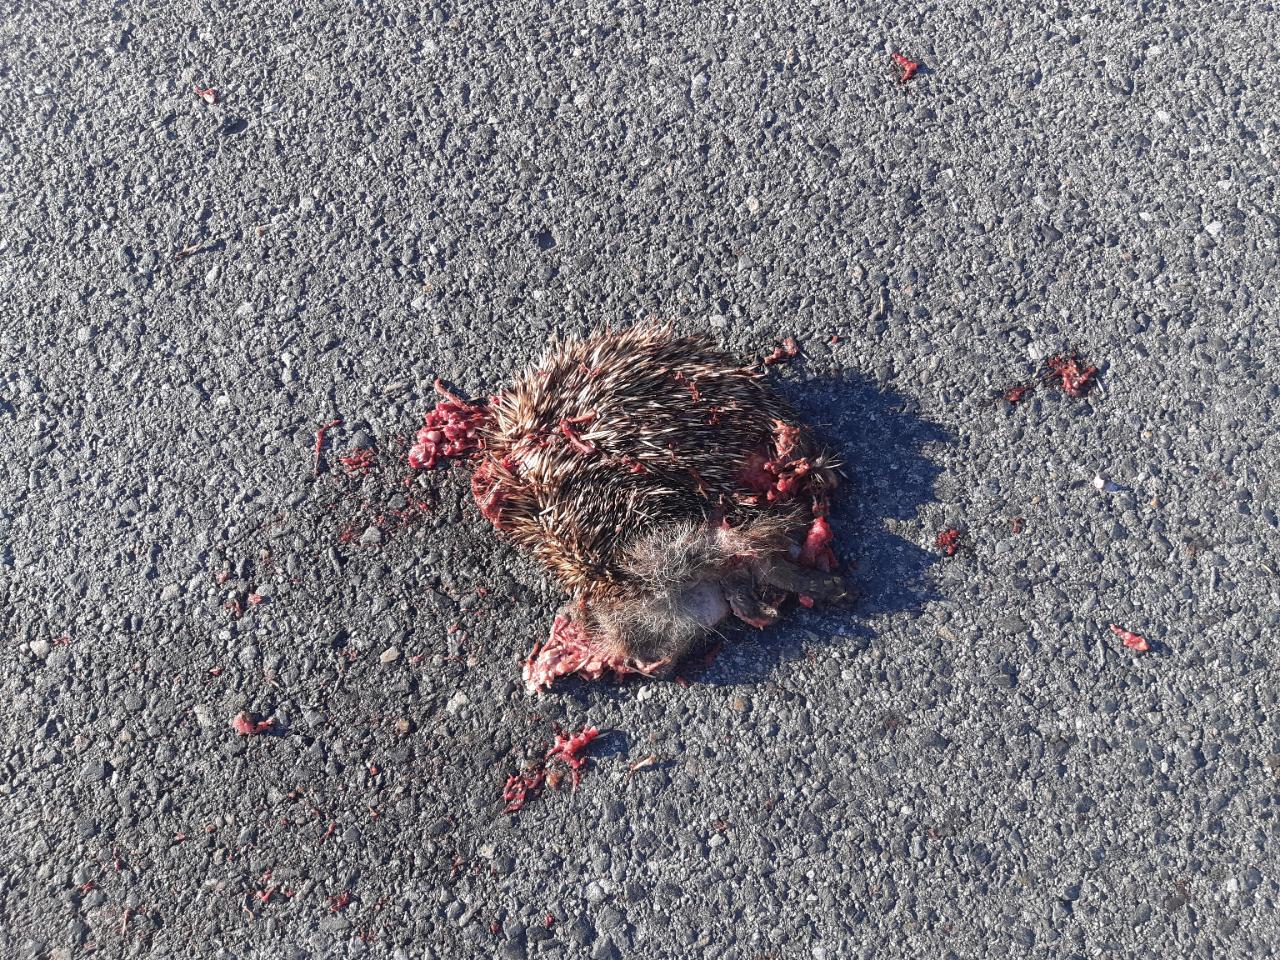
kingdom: Animalia
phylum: Chordata
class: Mammalia
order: Erinaceomorpha
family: Erinaceidae
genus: Erinaceus
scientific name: Erinaceus
